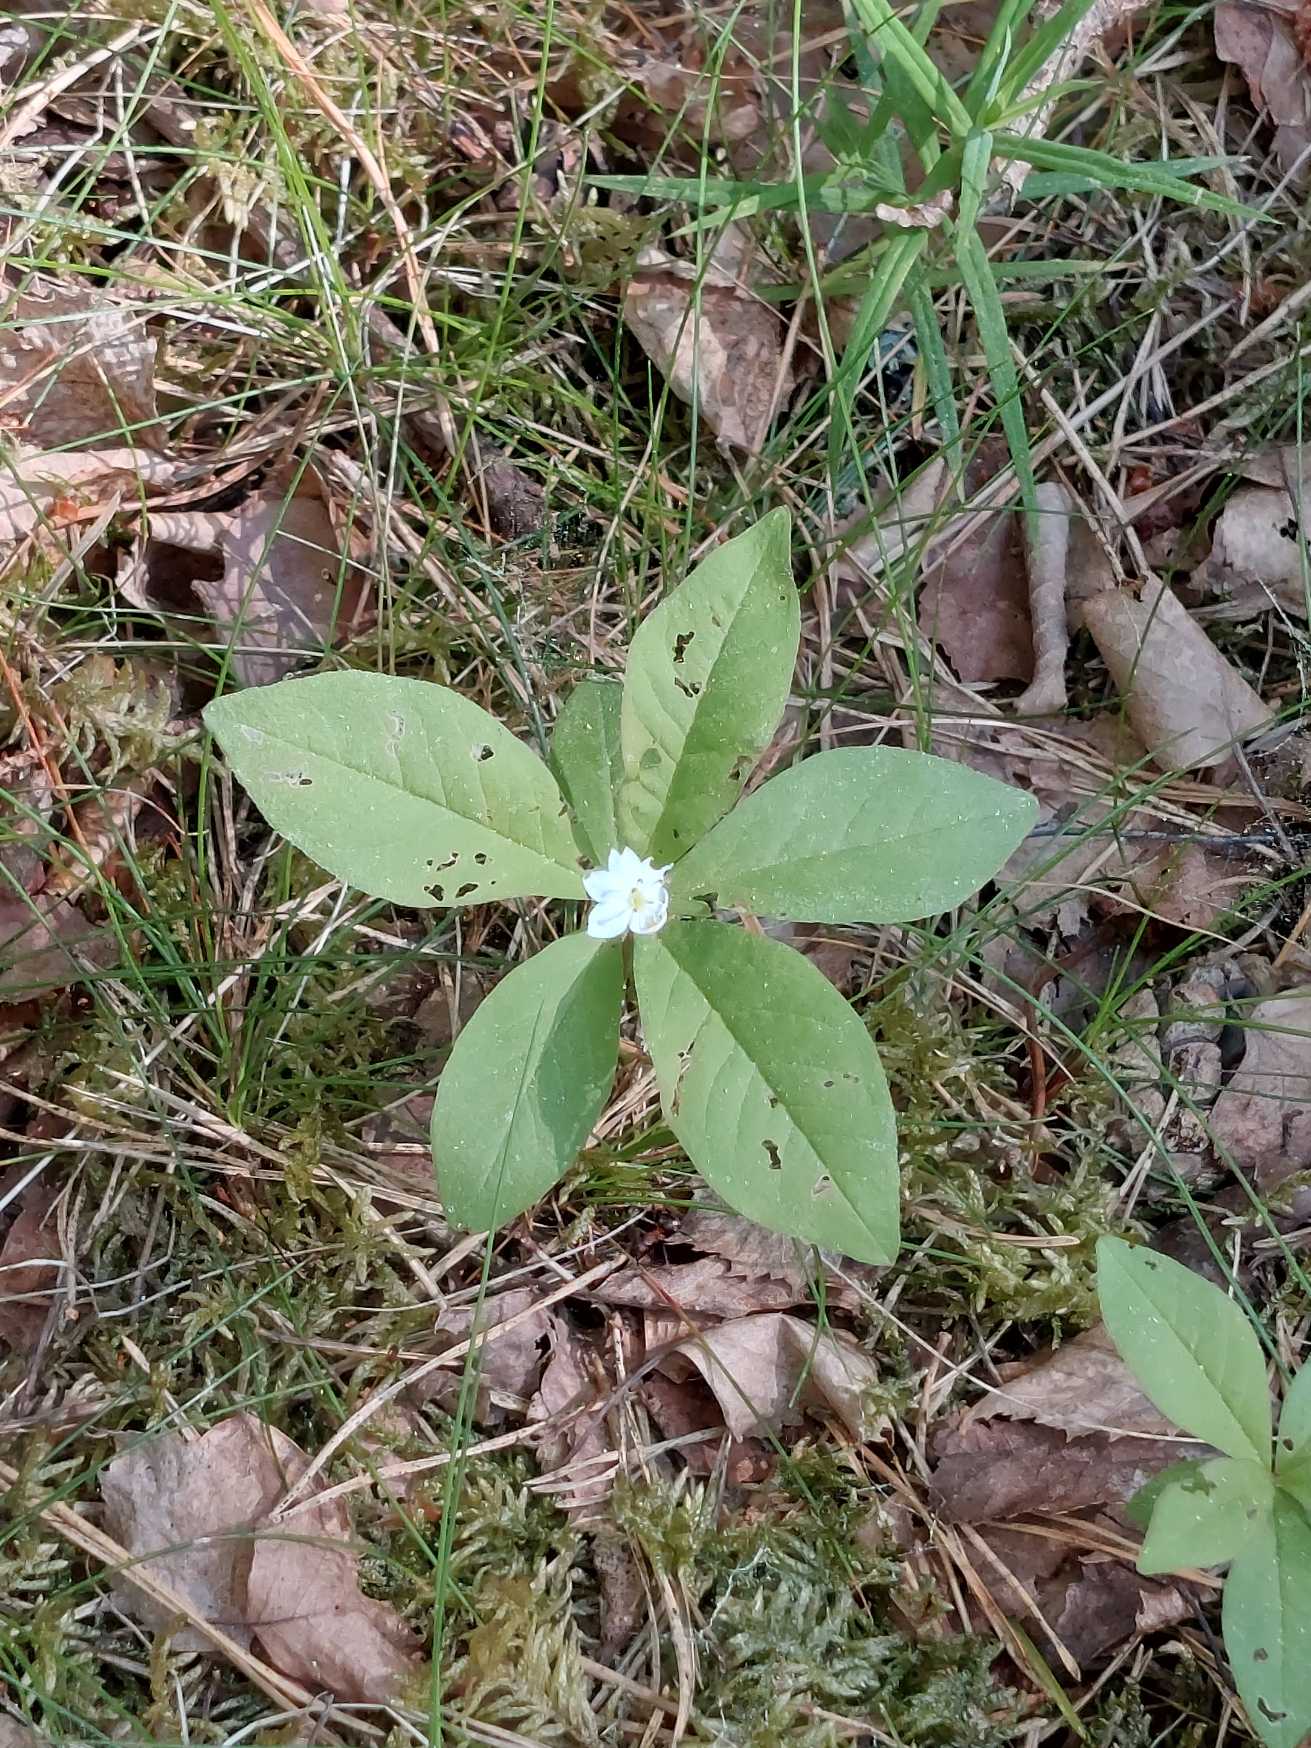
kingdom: Plantae
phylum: Tracheophyta
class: Magnoliopsida
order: Ericales
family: Primulaceae
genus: Lysimachia
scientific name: Lysimachia europaea
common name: Skovstjerne
